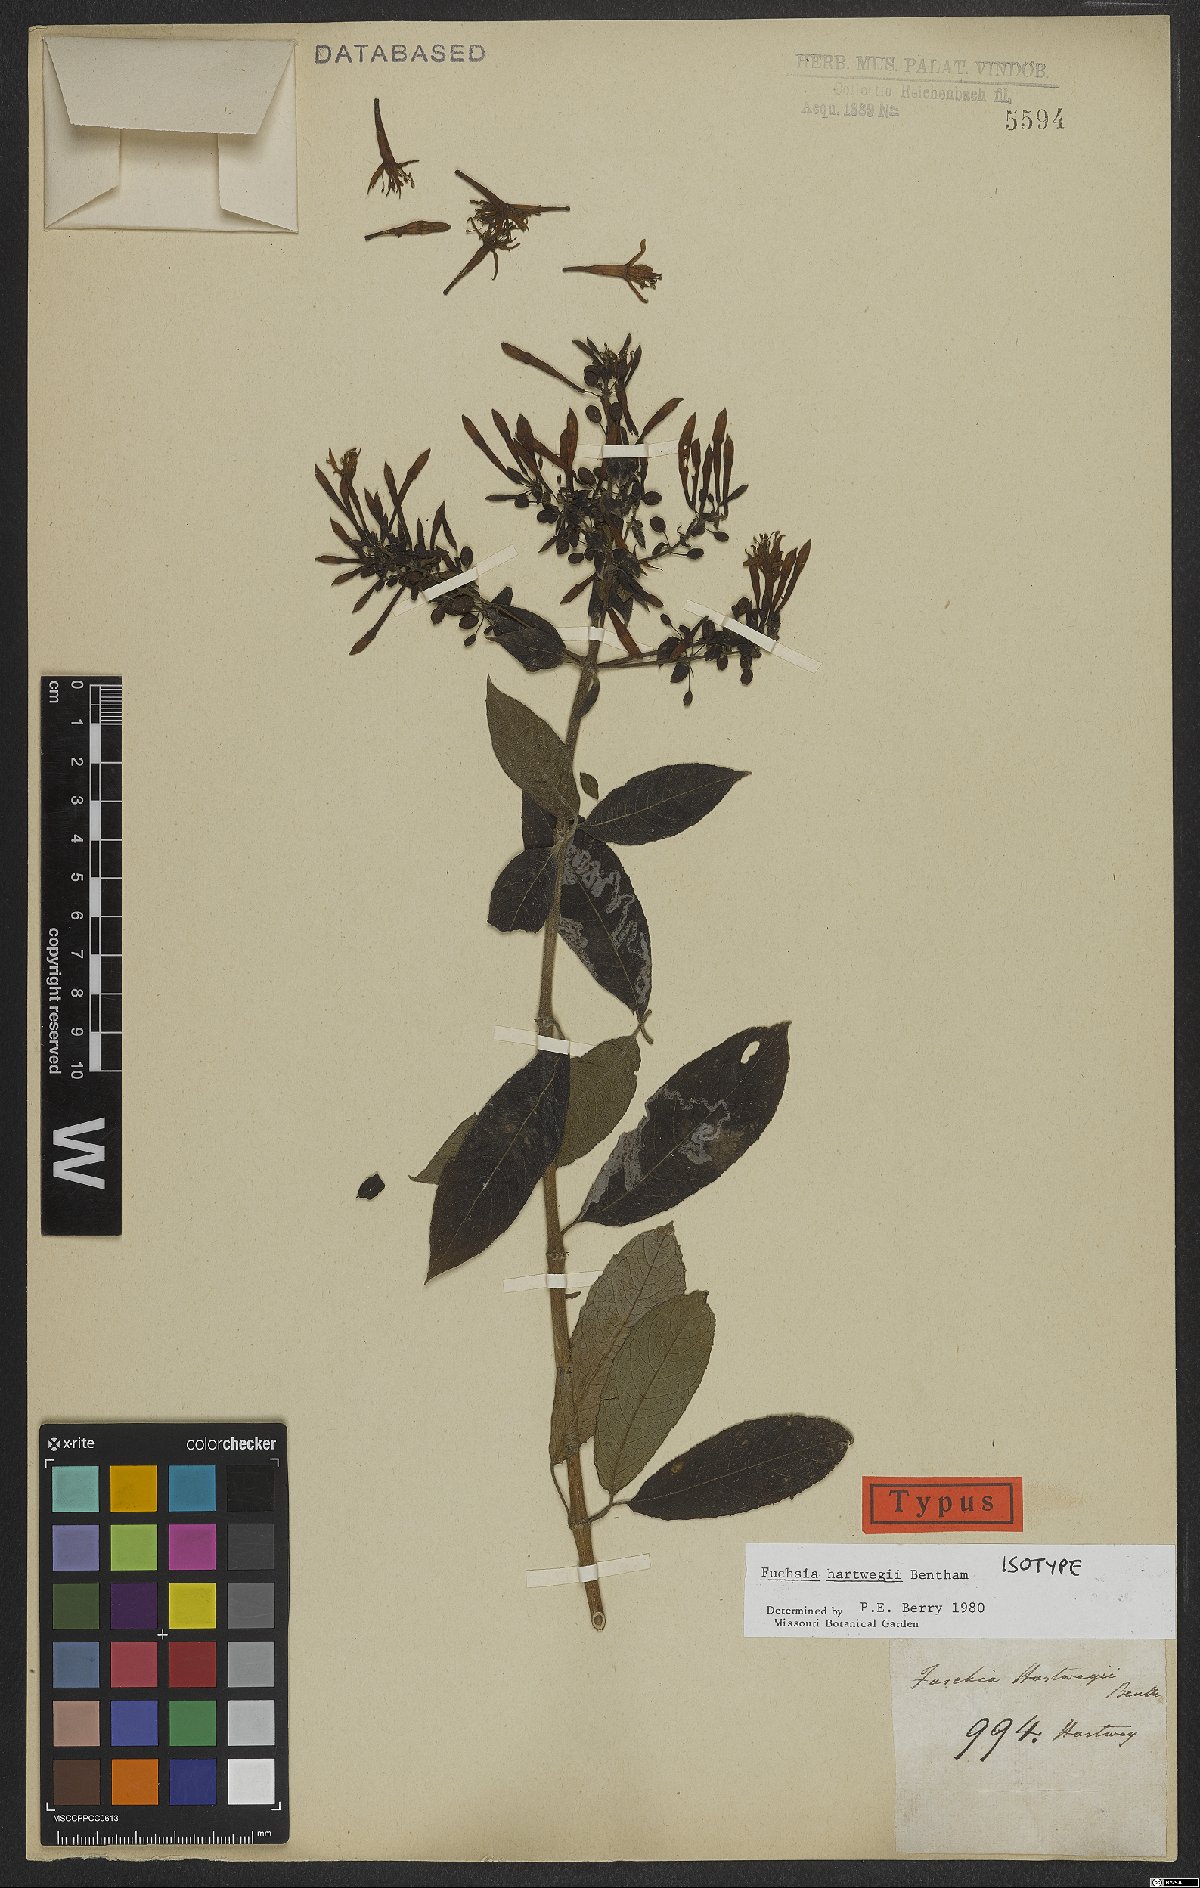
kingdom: Plantae
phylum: Tracheophyta
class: Magnoliopsida
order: Myrtales
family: Onagraceae
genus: Fuchsia
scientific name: Fuchsia hartwegii
